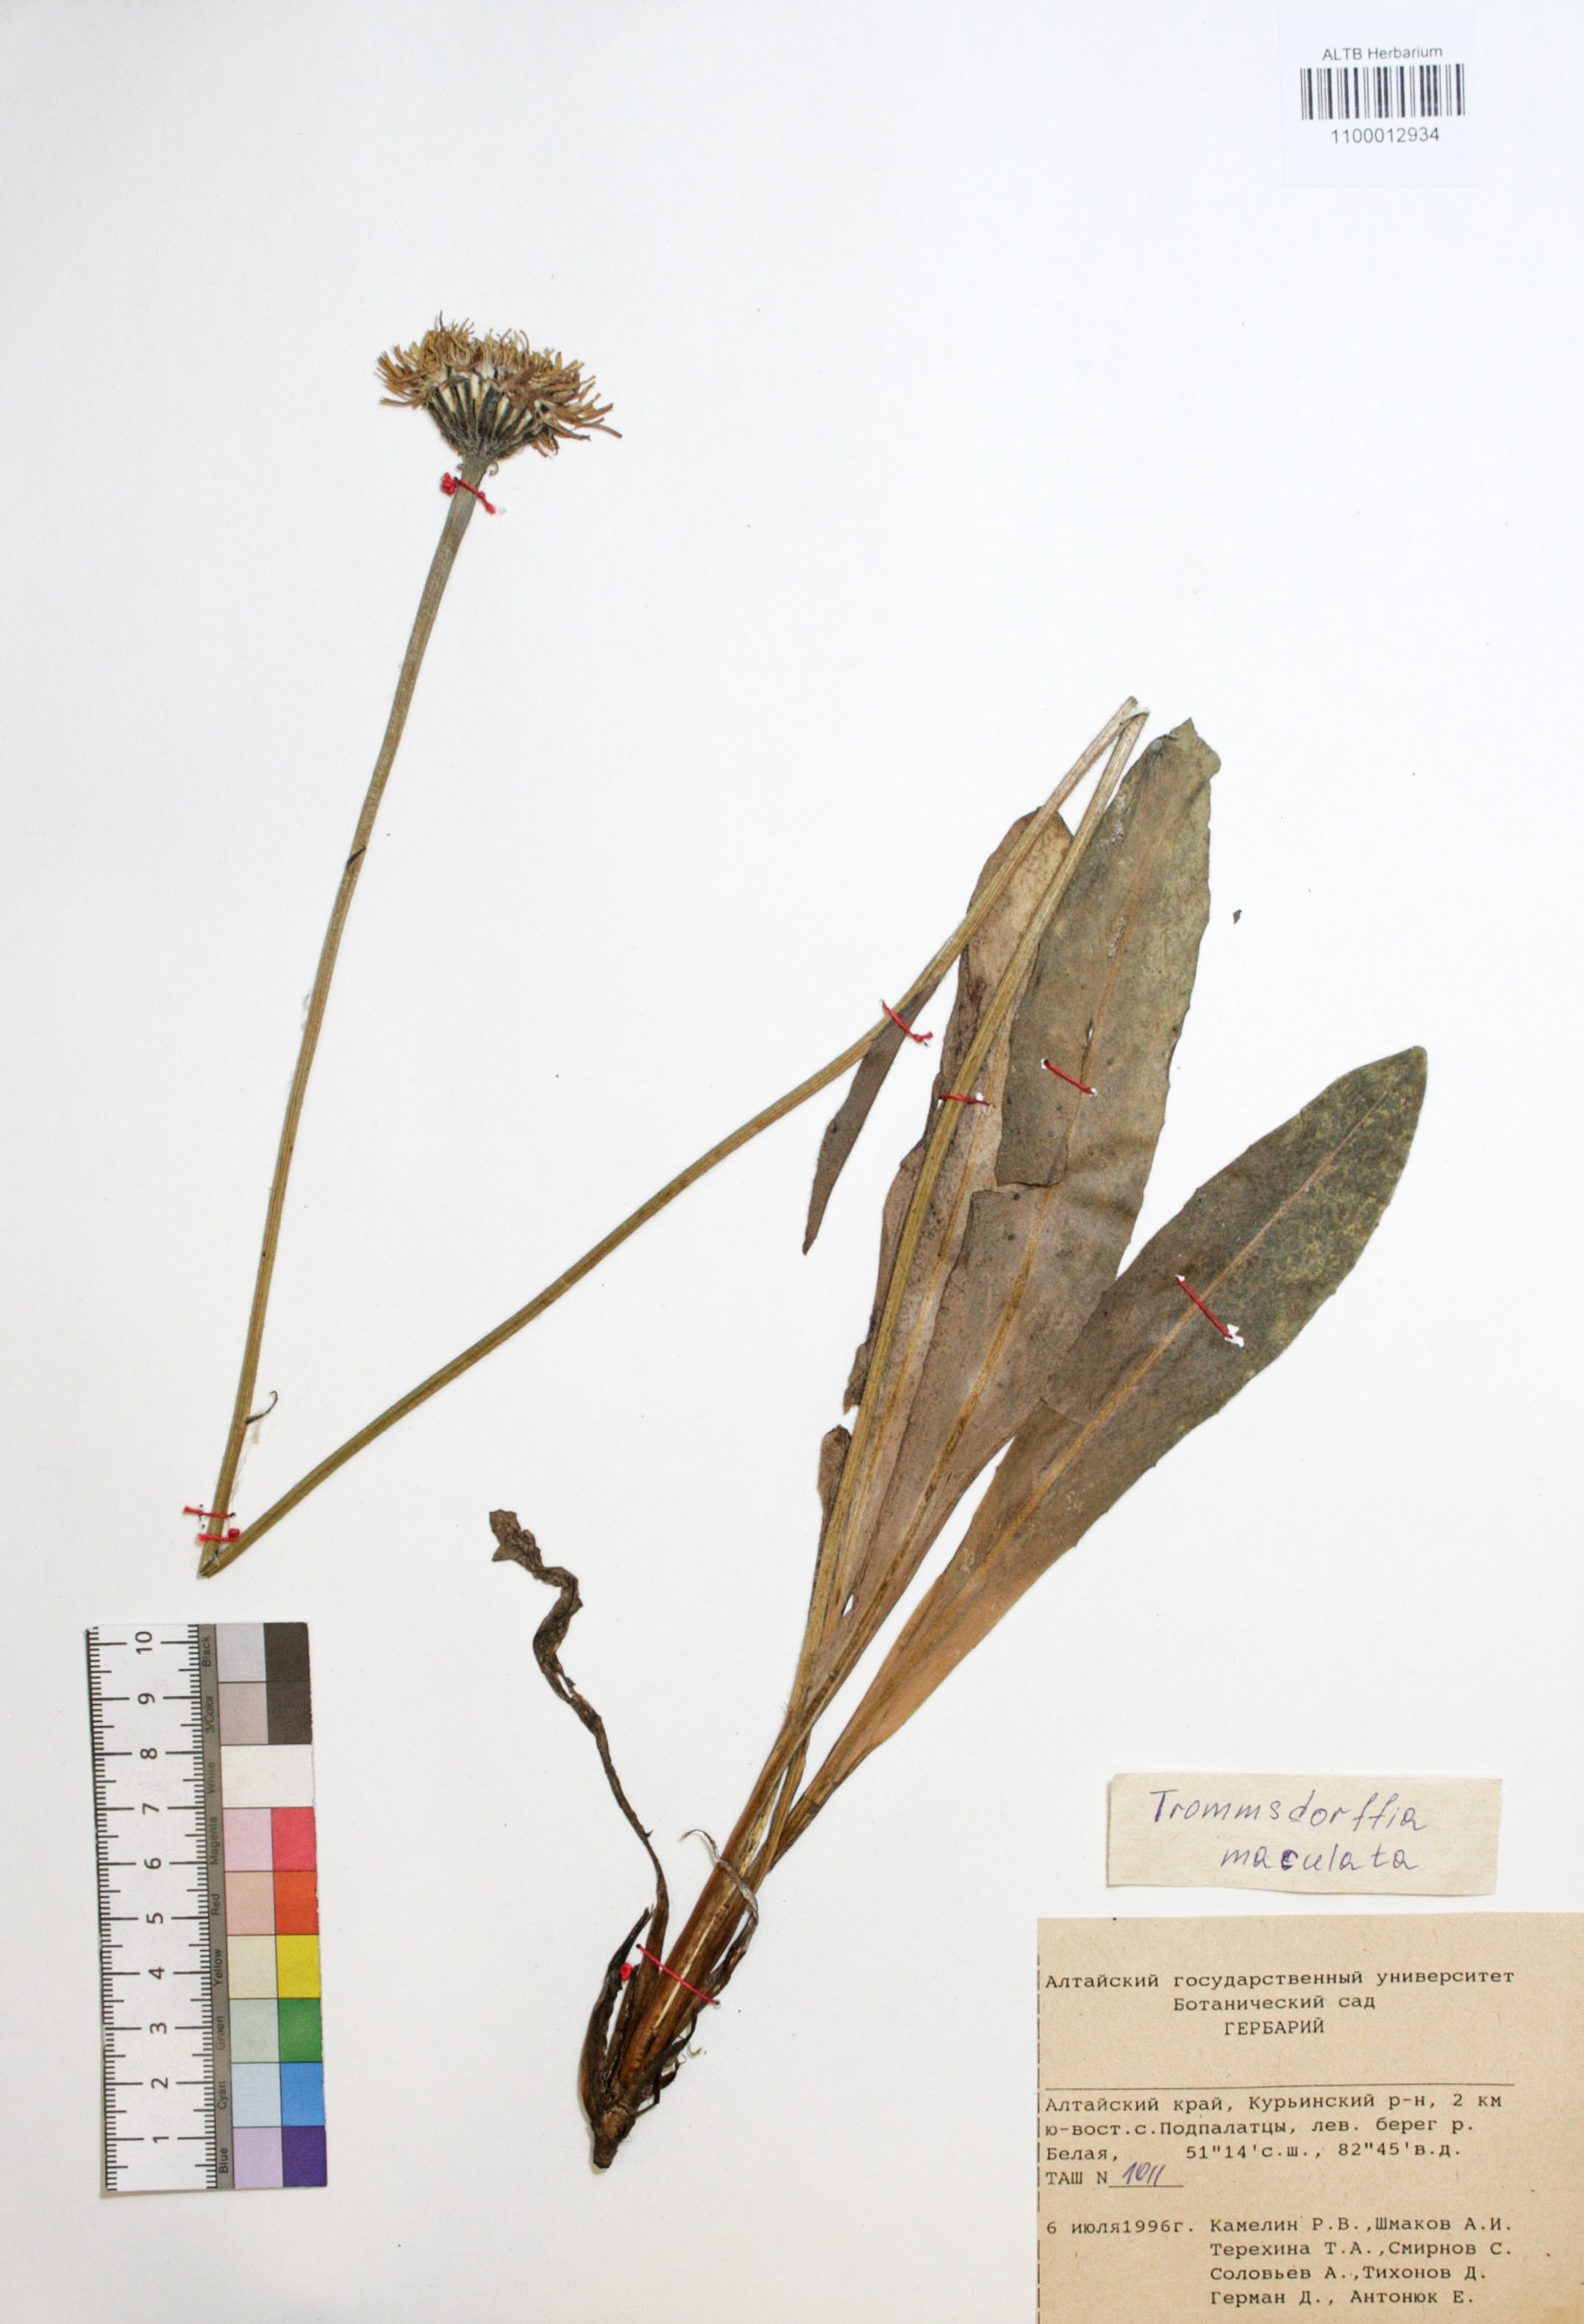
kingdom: Plantae
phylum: Tracheophyta
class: Magnoliopsida
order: Asterales
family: Asteraceae
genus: Trommsdorffia
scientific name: Trommsdorffia maculata
